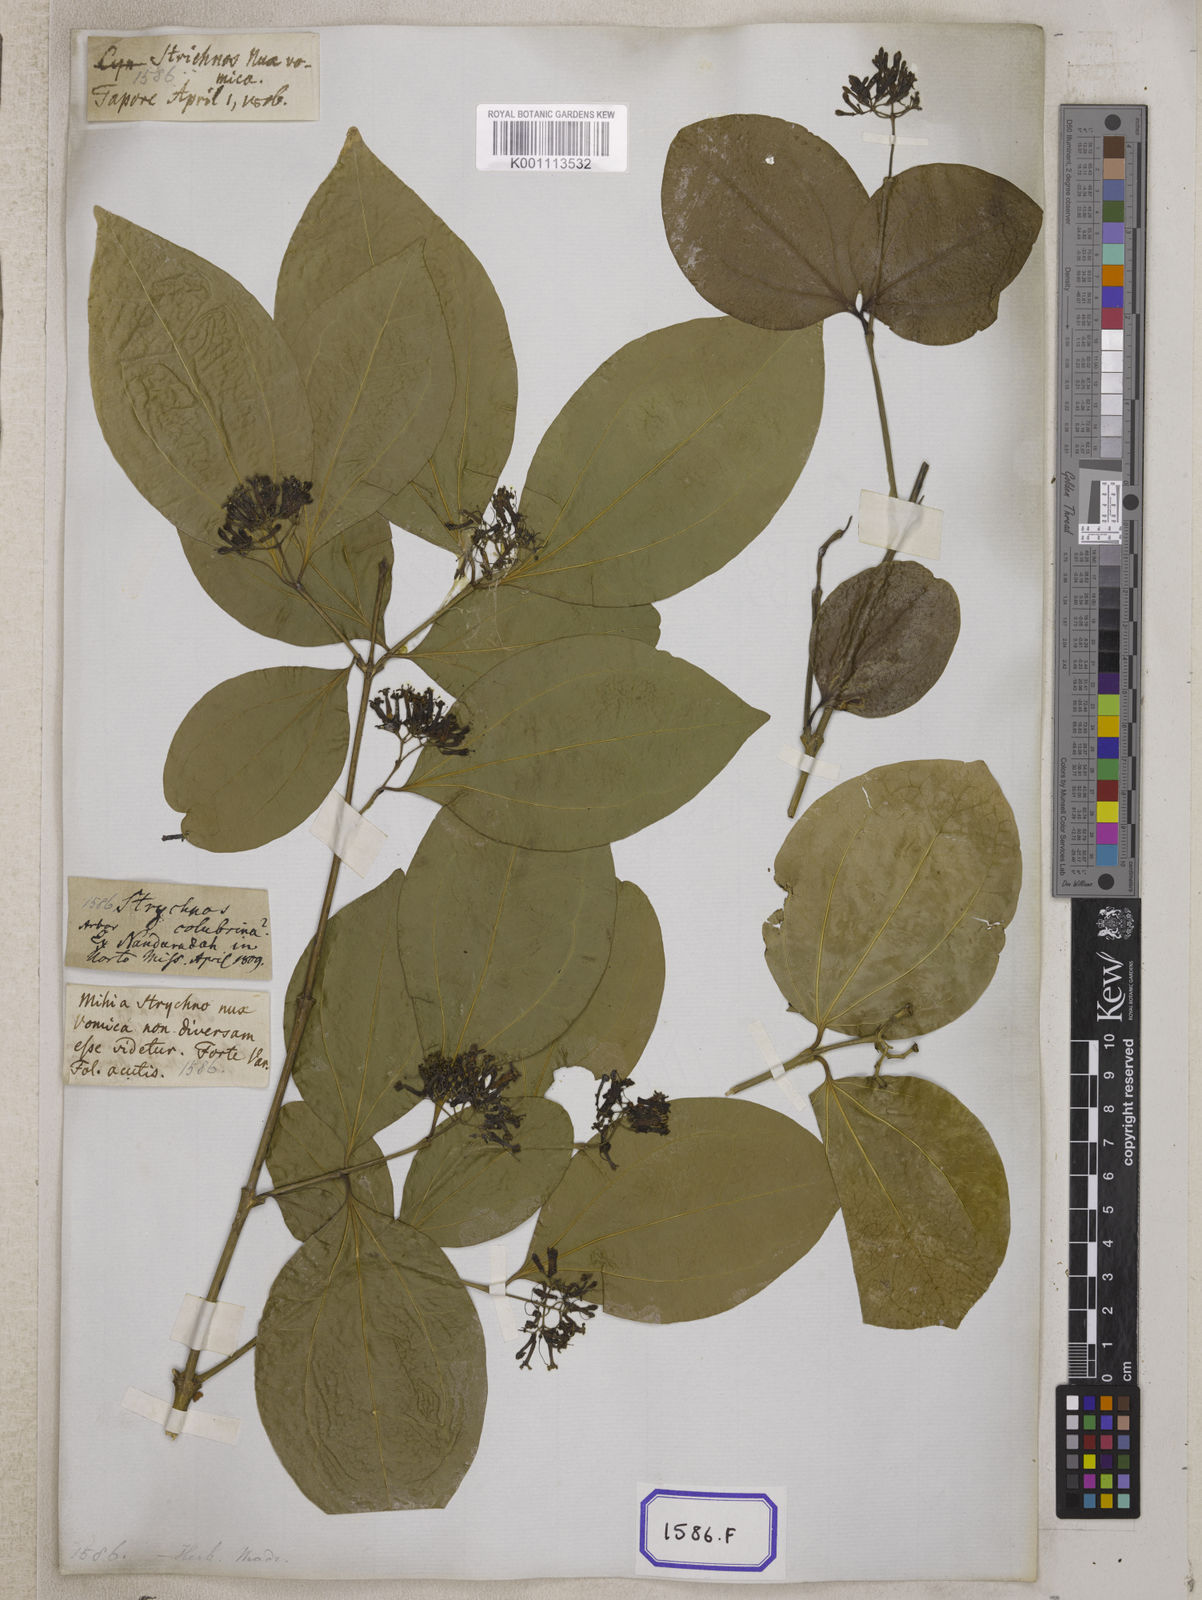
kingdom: Plantae
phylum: Tracheophyta
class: Magnoliopsida
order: Gentianales
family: Loganiaceae
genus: Strychnos
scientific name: Strychnos nux-vomica
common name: Strychninetree
